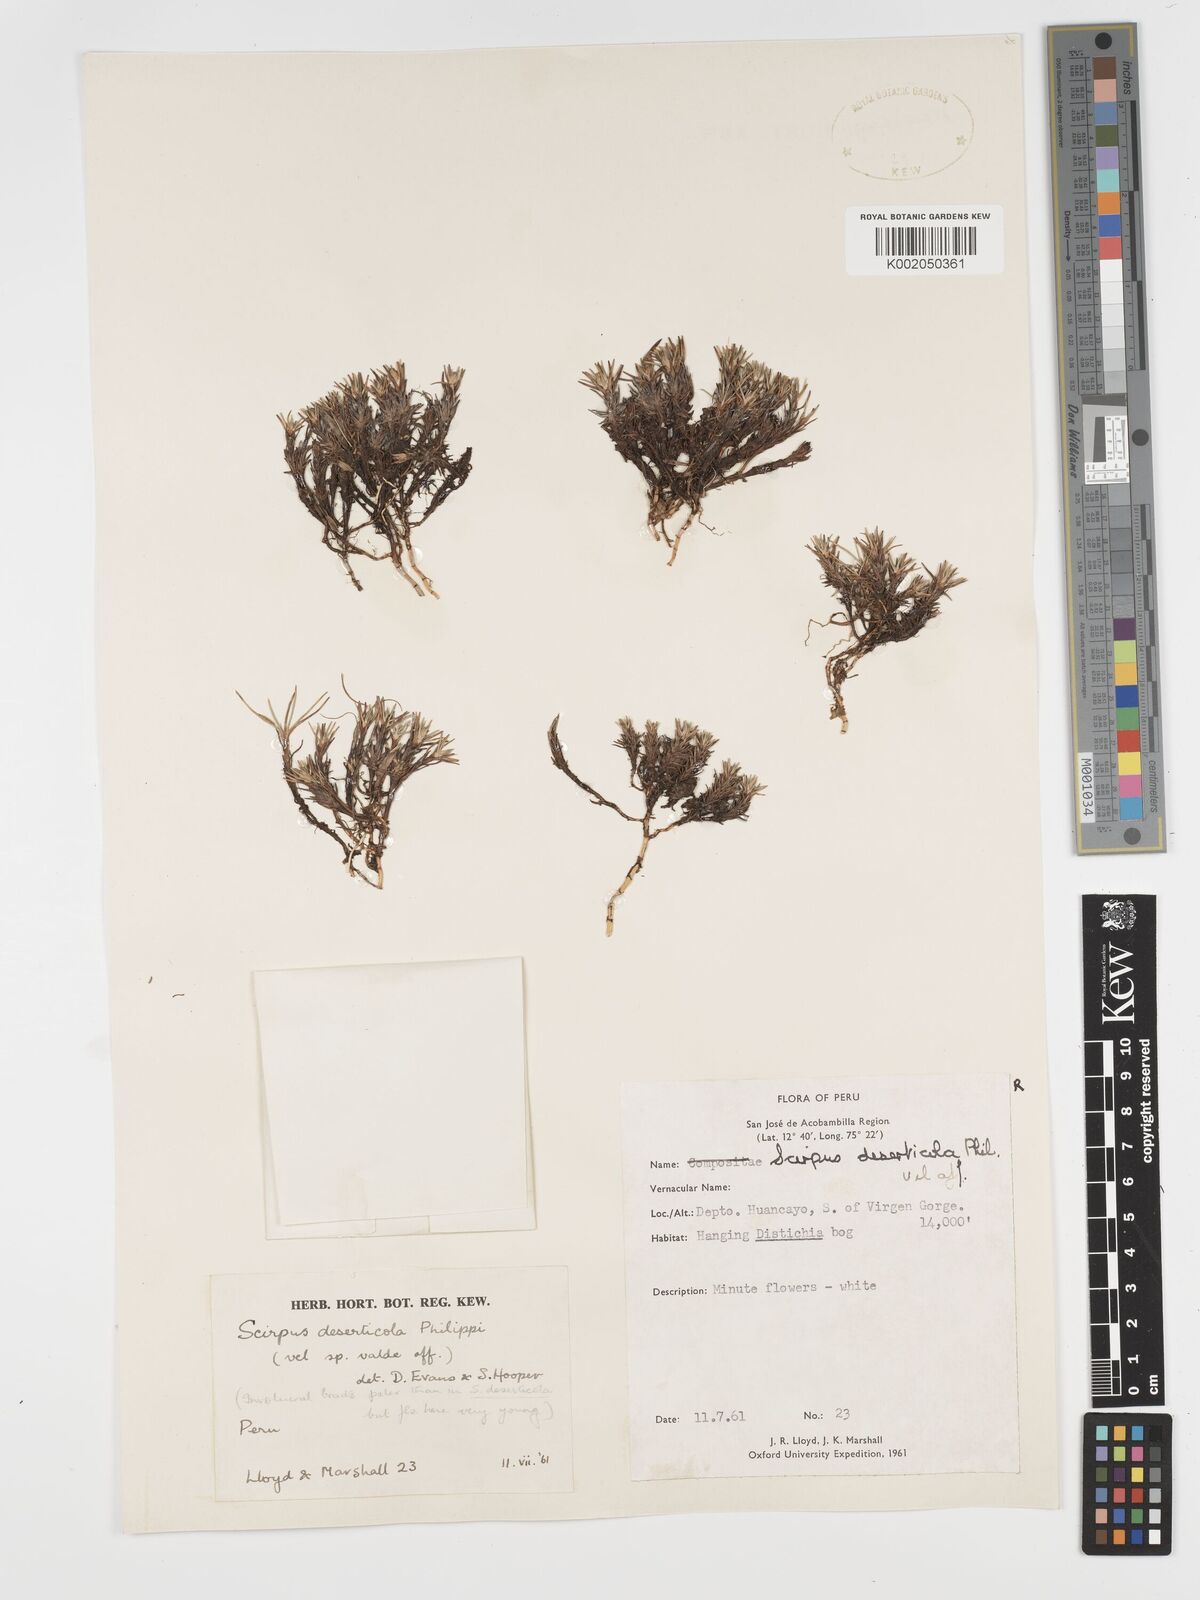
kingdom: Plantae
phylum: Tracheophyta
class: Liliopsida
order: Poales
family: Cyperaceae
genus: Phylloscirpus
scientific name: Phylloscirpus deserticola
